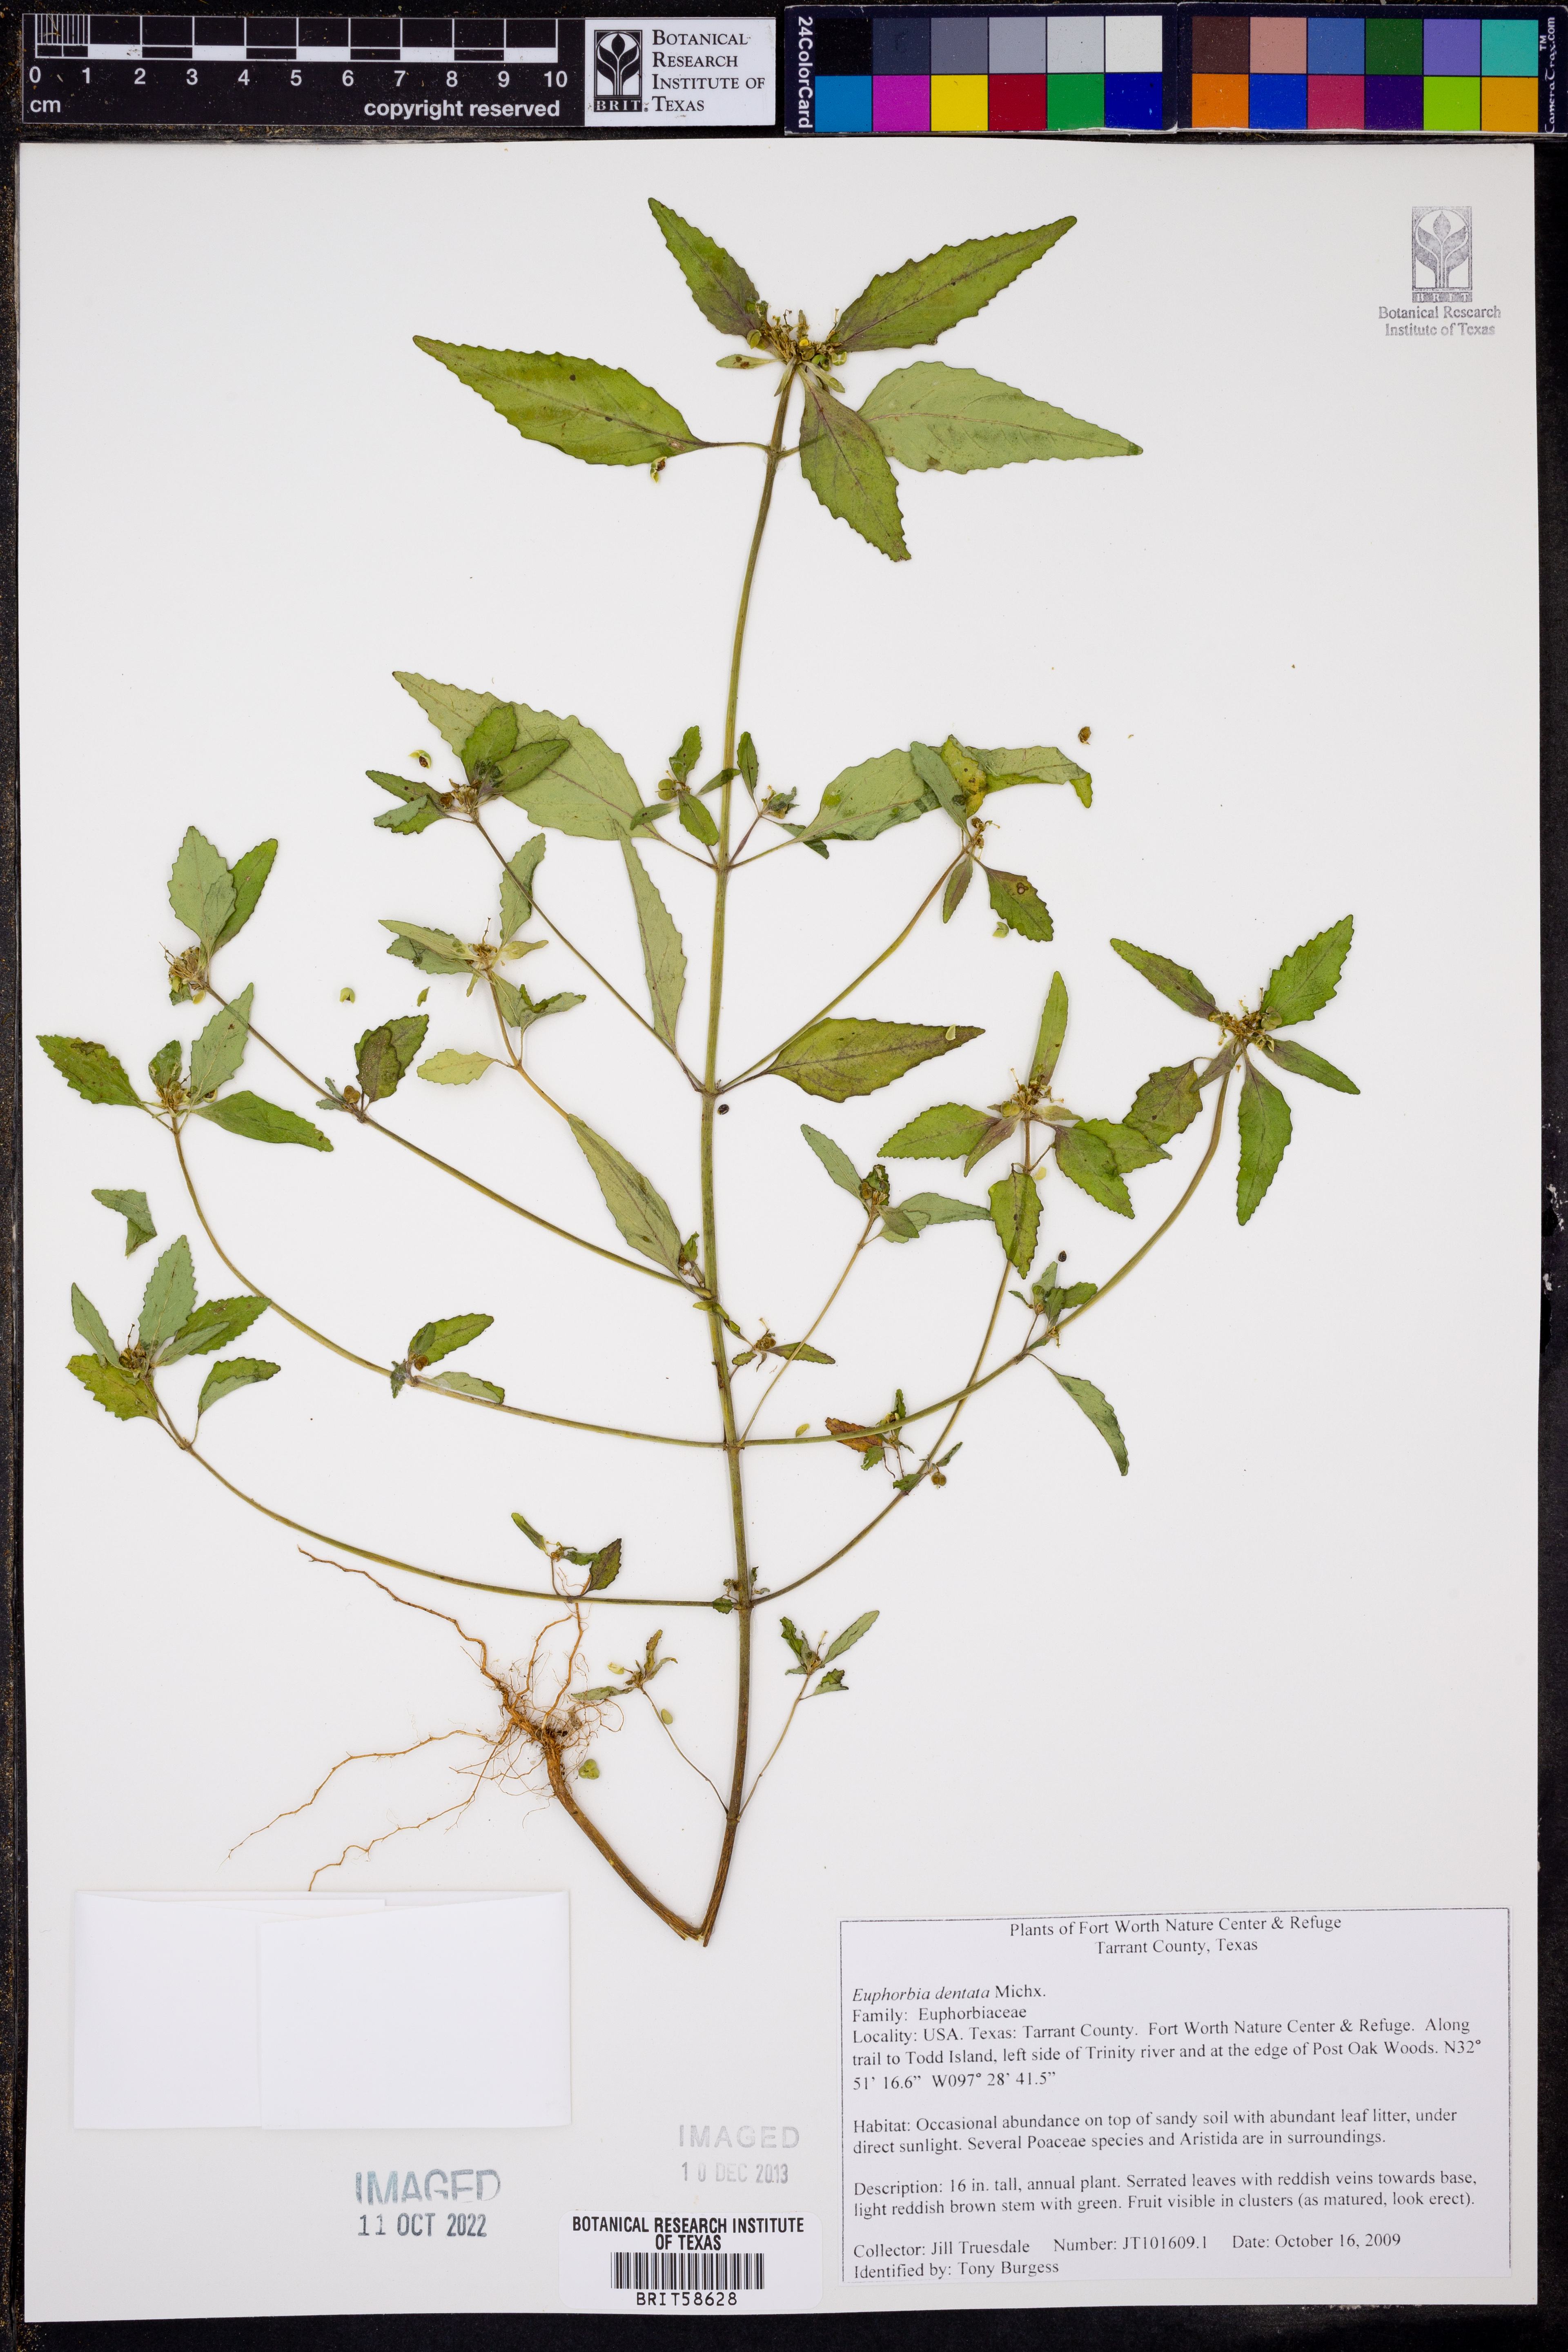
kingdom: Plantae
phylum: Tracheophyta
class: Magnoliopsida
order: Malpighiales
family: Euphorbiaceae
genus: Euphorbia
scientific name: Euphorbia dentata
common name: Dentate spurge
